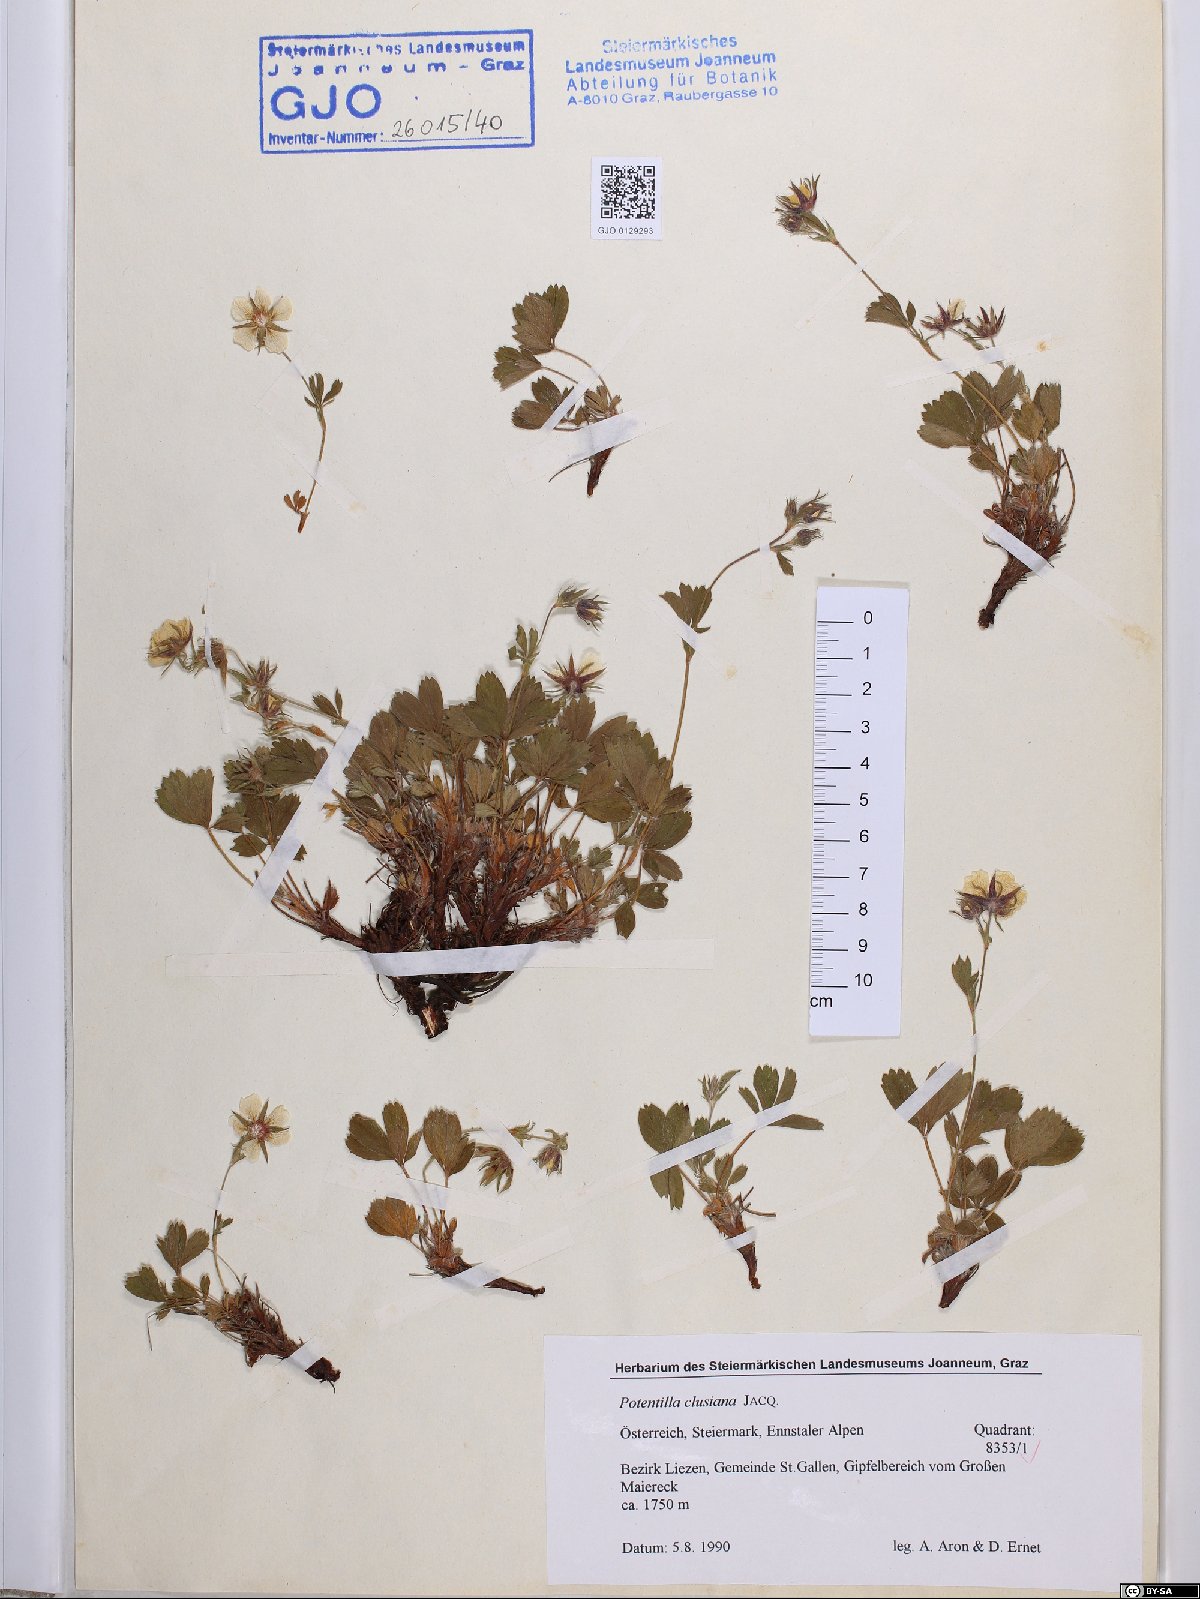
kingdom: Plantae
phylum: Tracheophyta
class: Magnoliopsida
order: Rosales
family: Rosaceae
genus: Potentilla
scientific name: Potentilla clusiana
